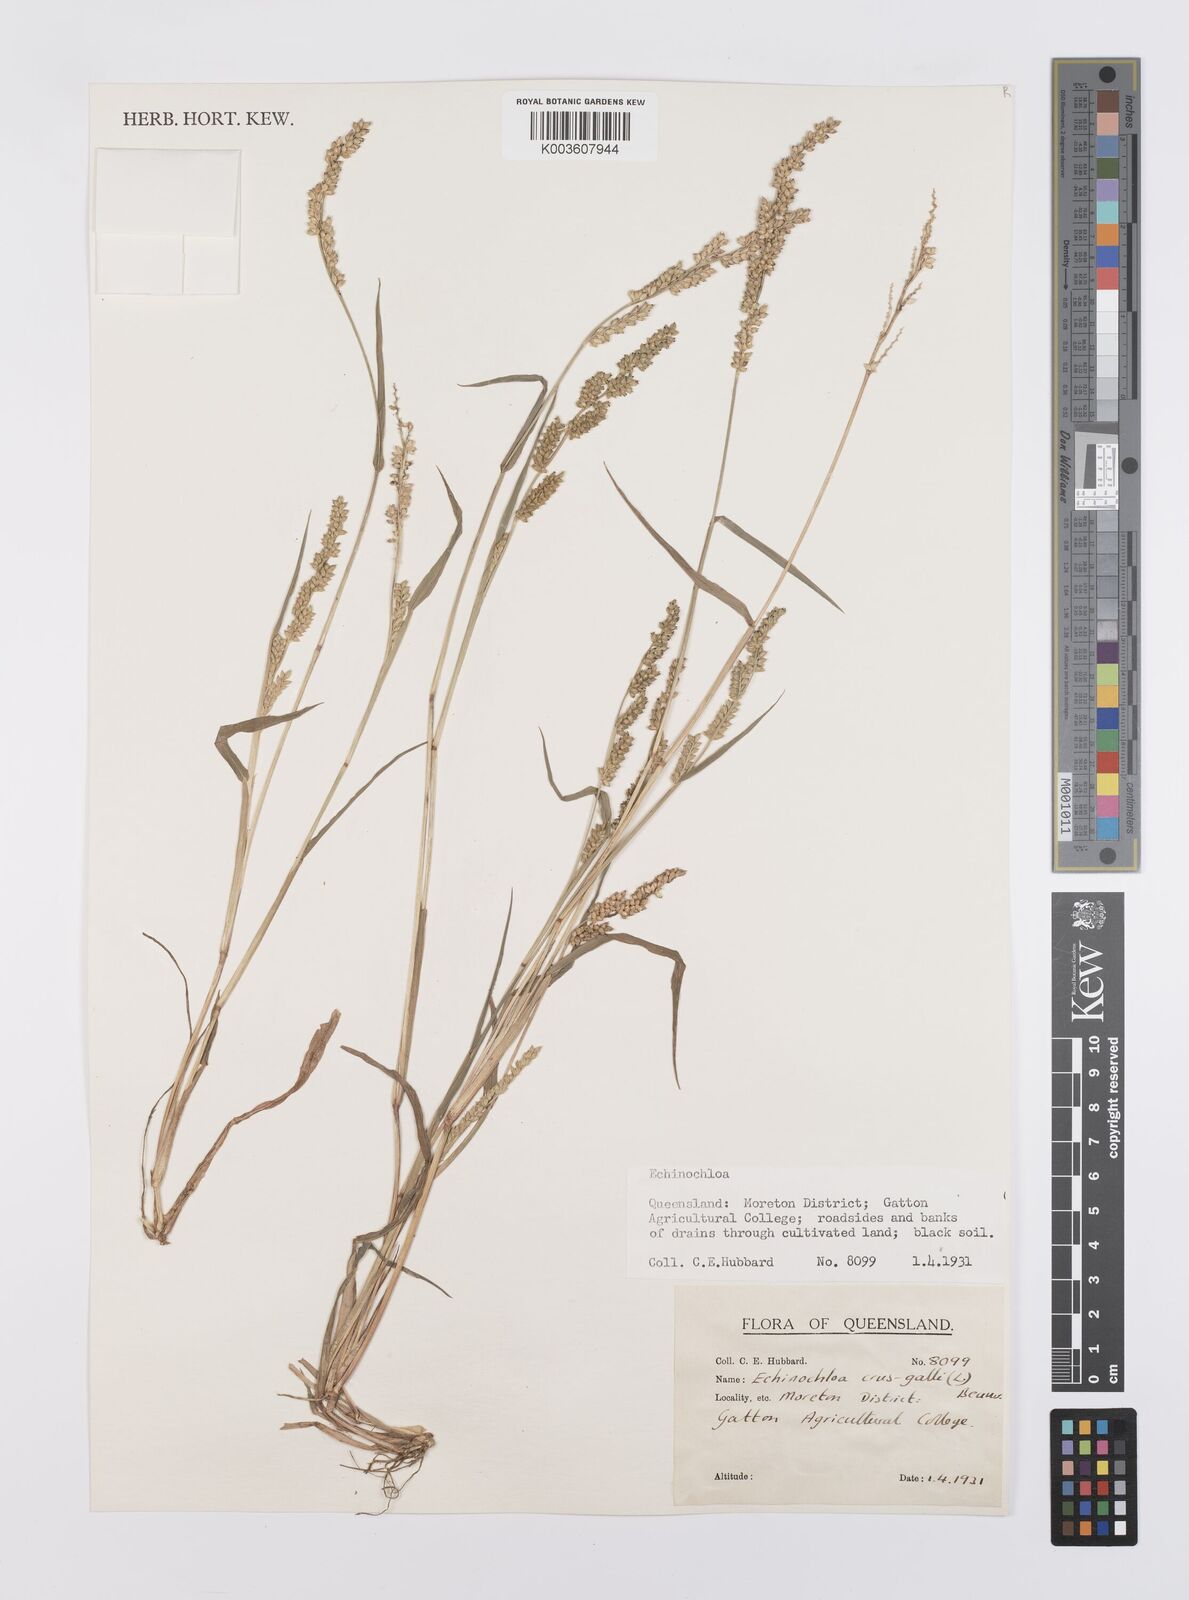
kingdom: Plantae
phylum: Tracheophyta
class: Liliopsida
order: Poales
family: Poaceae
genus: Echinochloa
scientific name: Echinochloa crus-galli
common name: Cockspur
